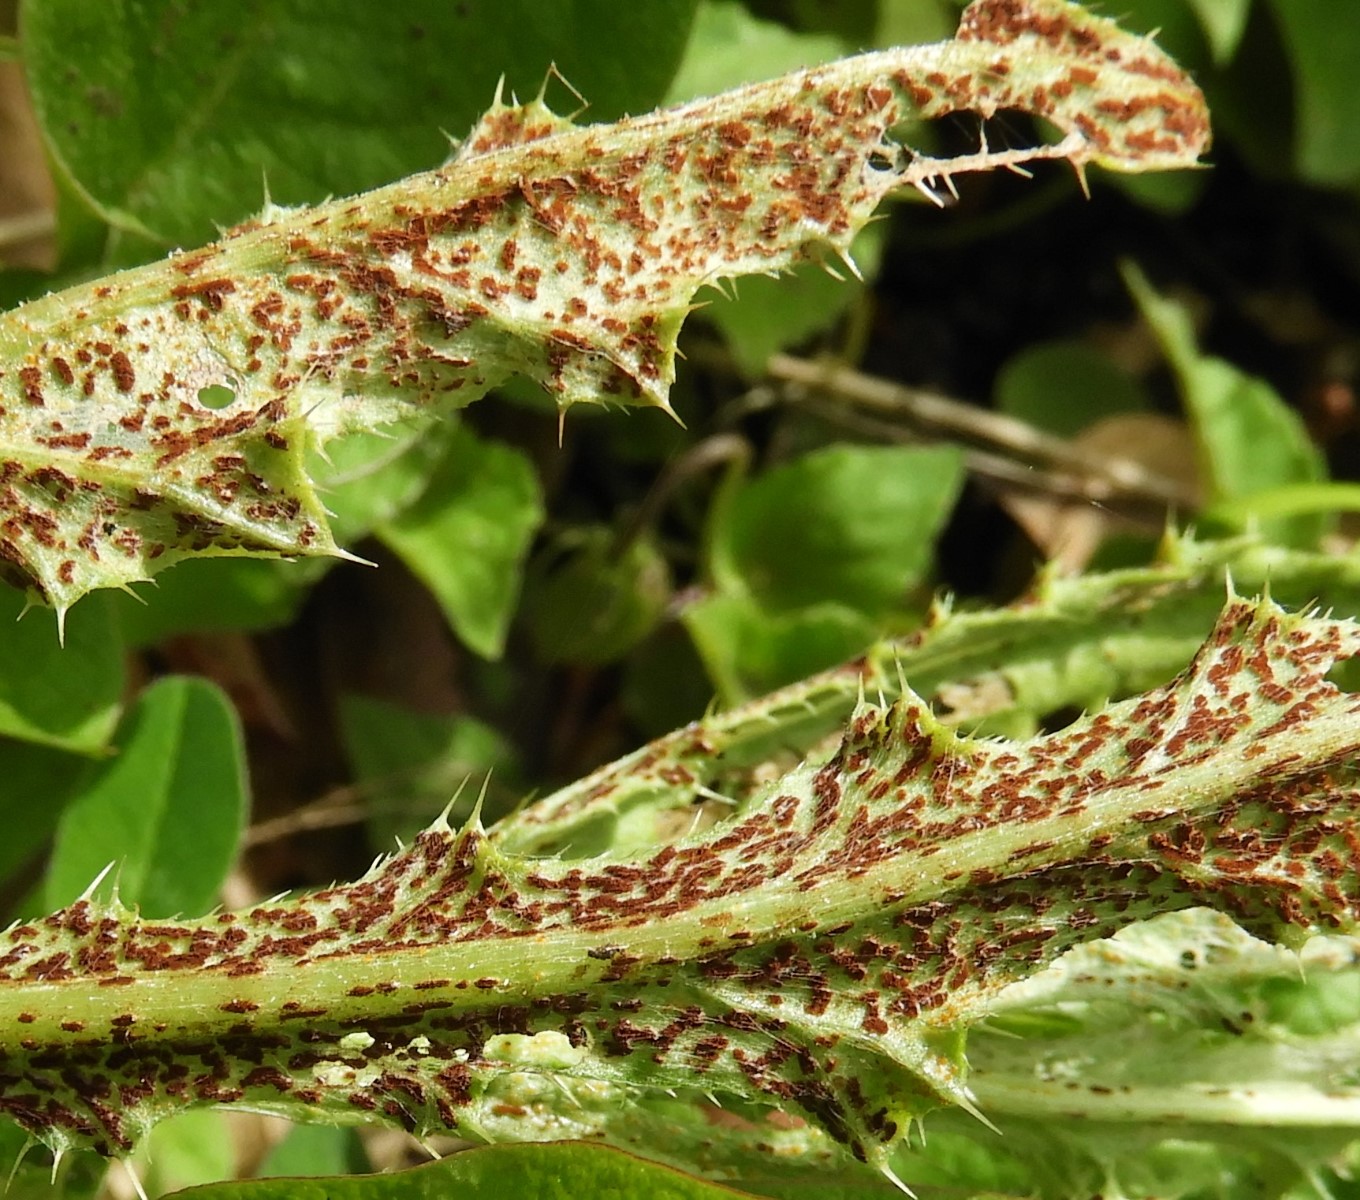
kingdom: Fungi
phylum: Basidiomycota
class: Pucciniomycetes
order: Pucciniales
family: Pucciniaceae
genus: Puccinia
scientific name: Puccinia suaveolens
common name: tidsel-tvecellerust
